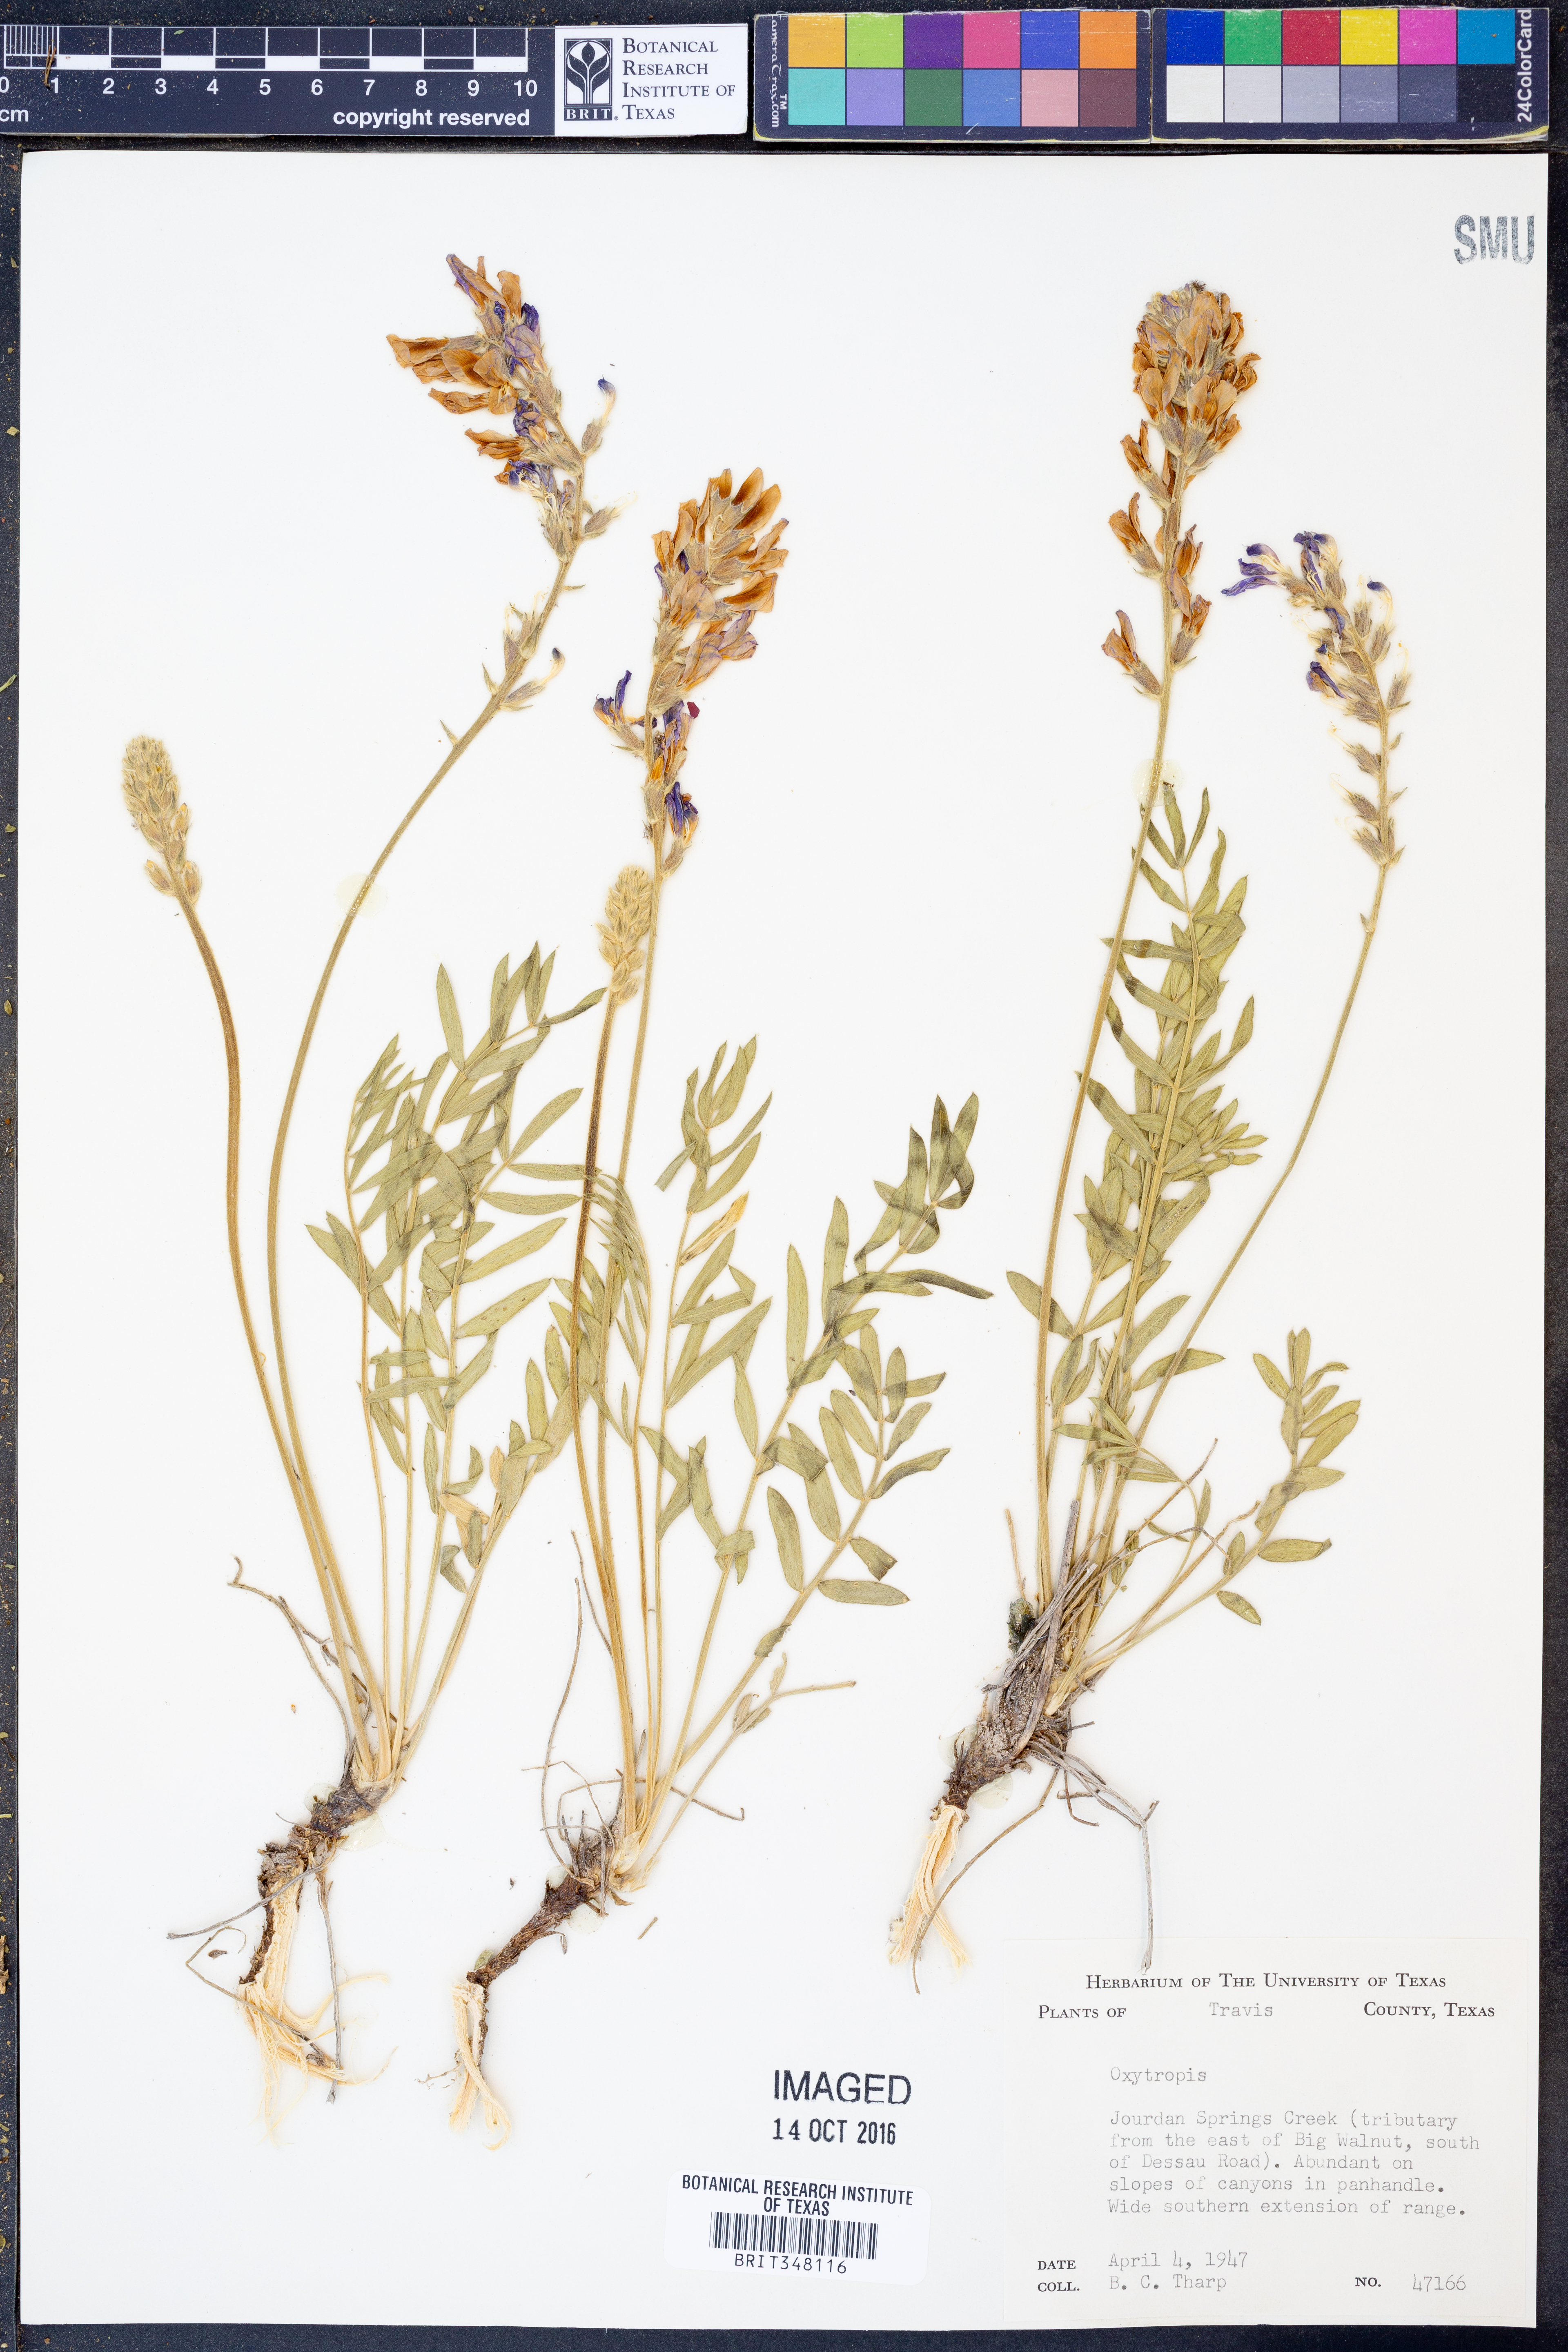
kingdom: Plantae
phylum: Tracheophyta
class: Magnoliopsida
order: Fabales
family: Fabaceae
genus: Oxytropis
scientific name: Oxytropis
